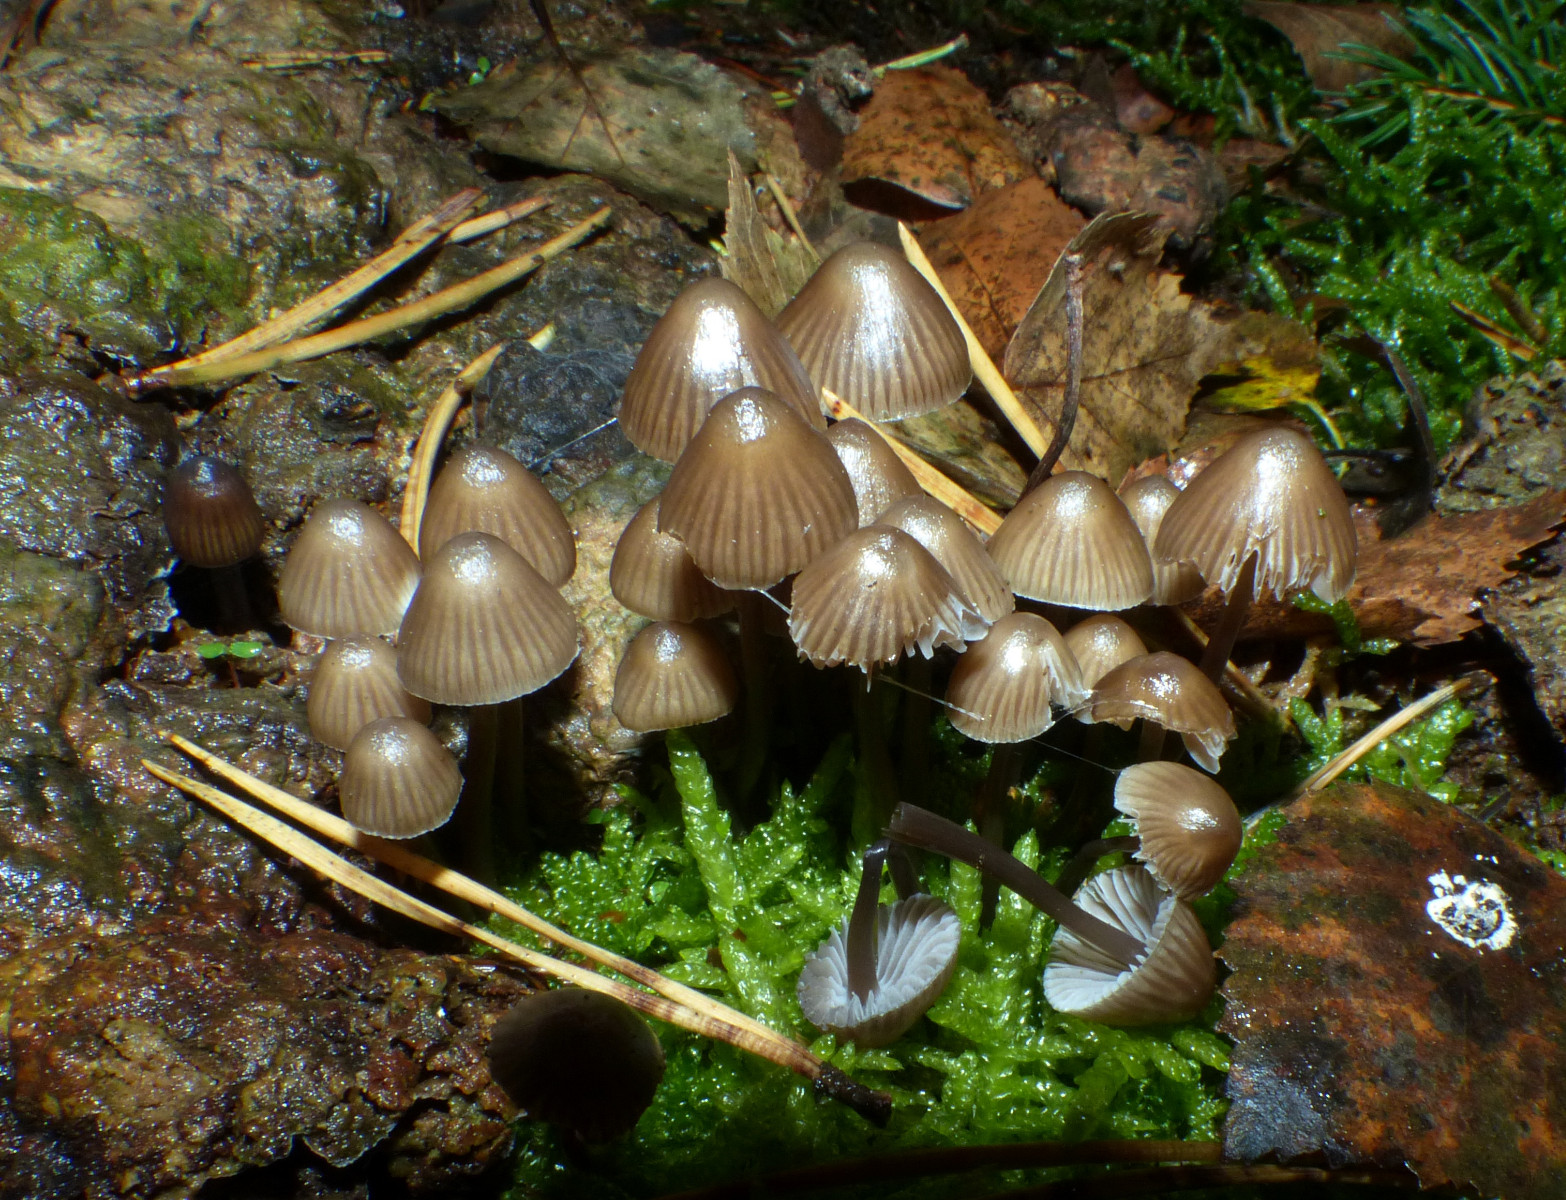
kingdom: Fungi
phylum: Basidiomycota
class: Agaricomycetes
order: Agaricales
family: Mycenaceae
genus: Mycena
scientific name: Mycena stipata
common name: stinkende huesvamp
